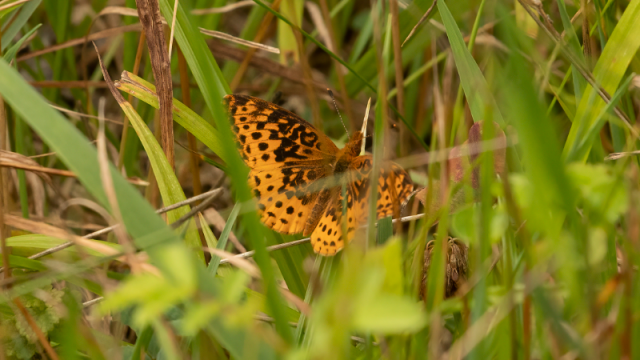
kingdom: Animalia
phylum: Arthropoda
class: Insecta
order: Lepidoptera
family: Nymphalidae
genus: Clossiana
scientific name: Clossiana toddi
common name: Meadow Fritillary
